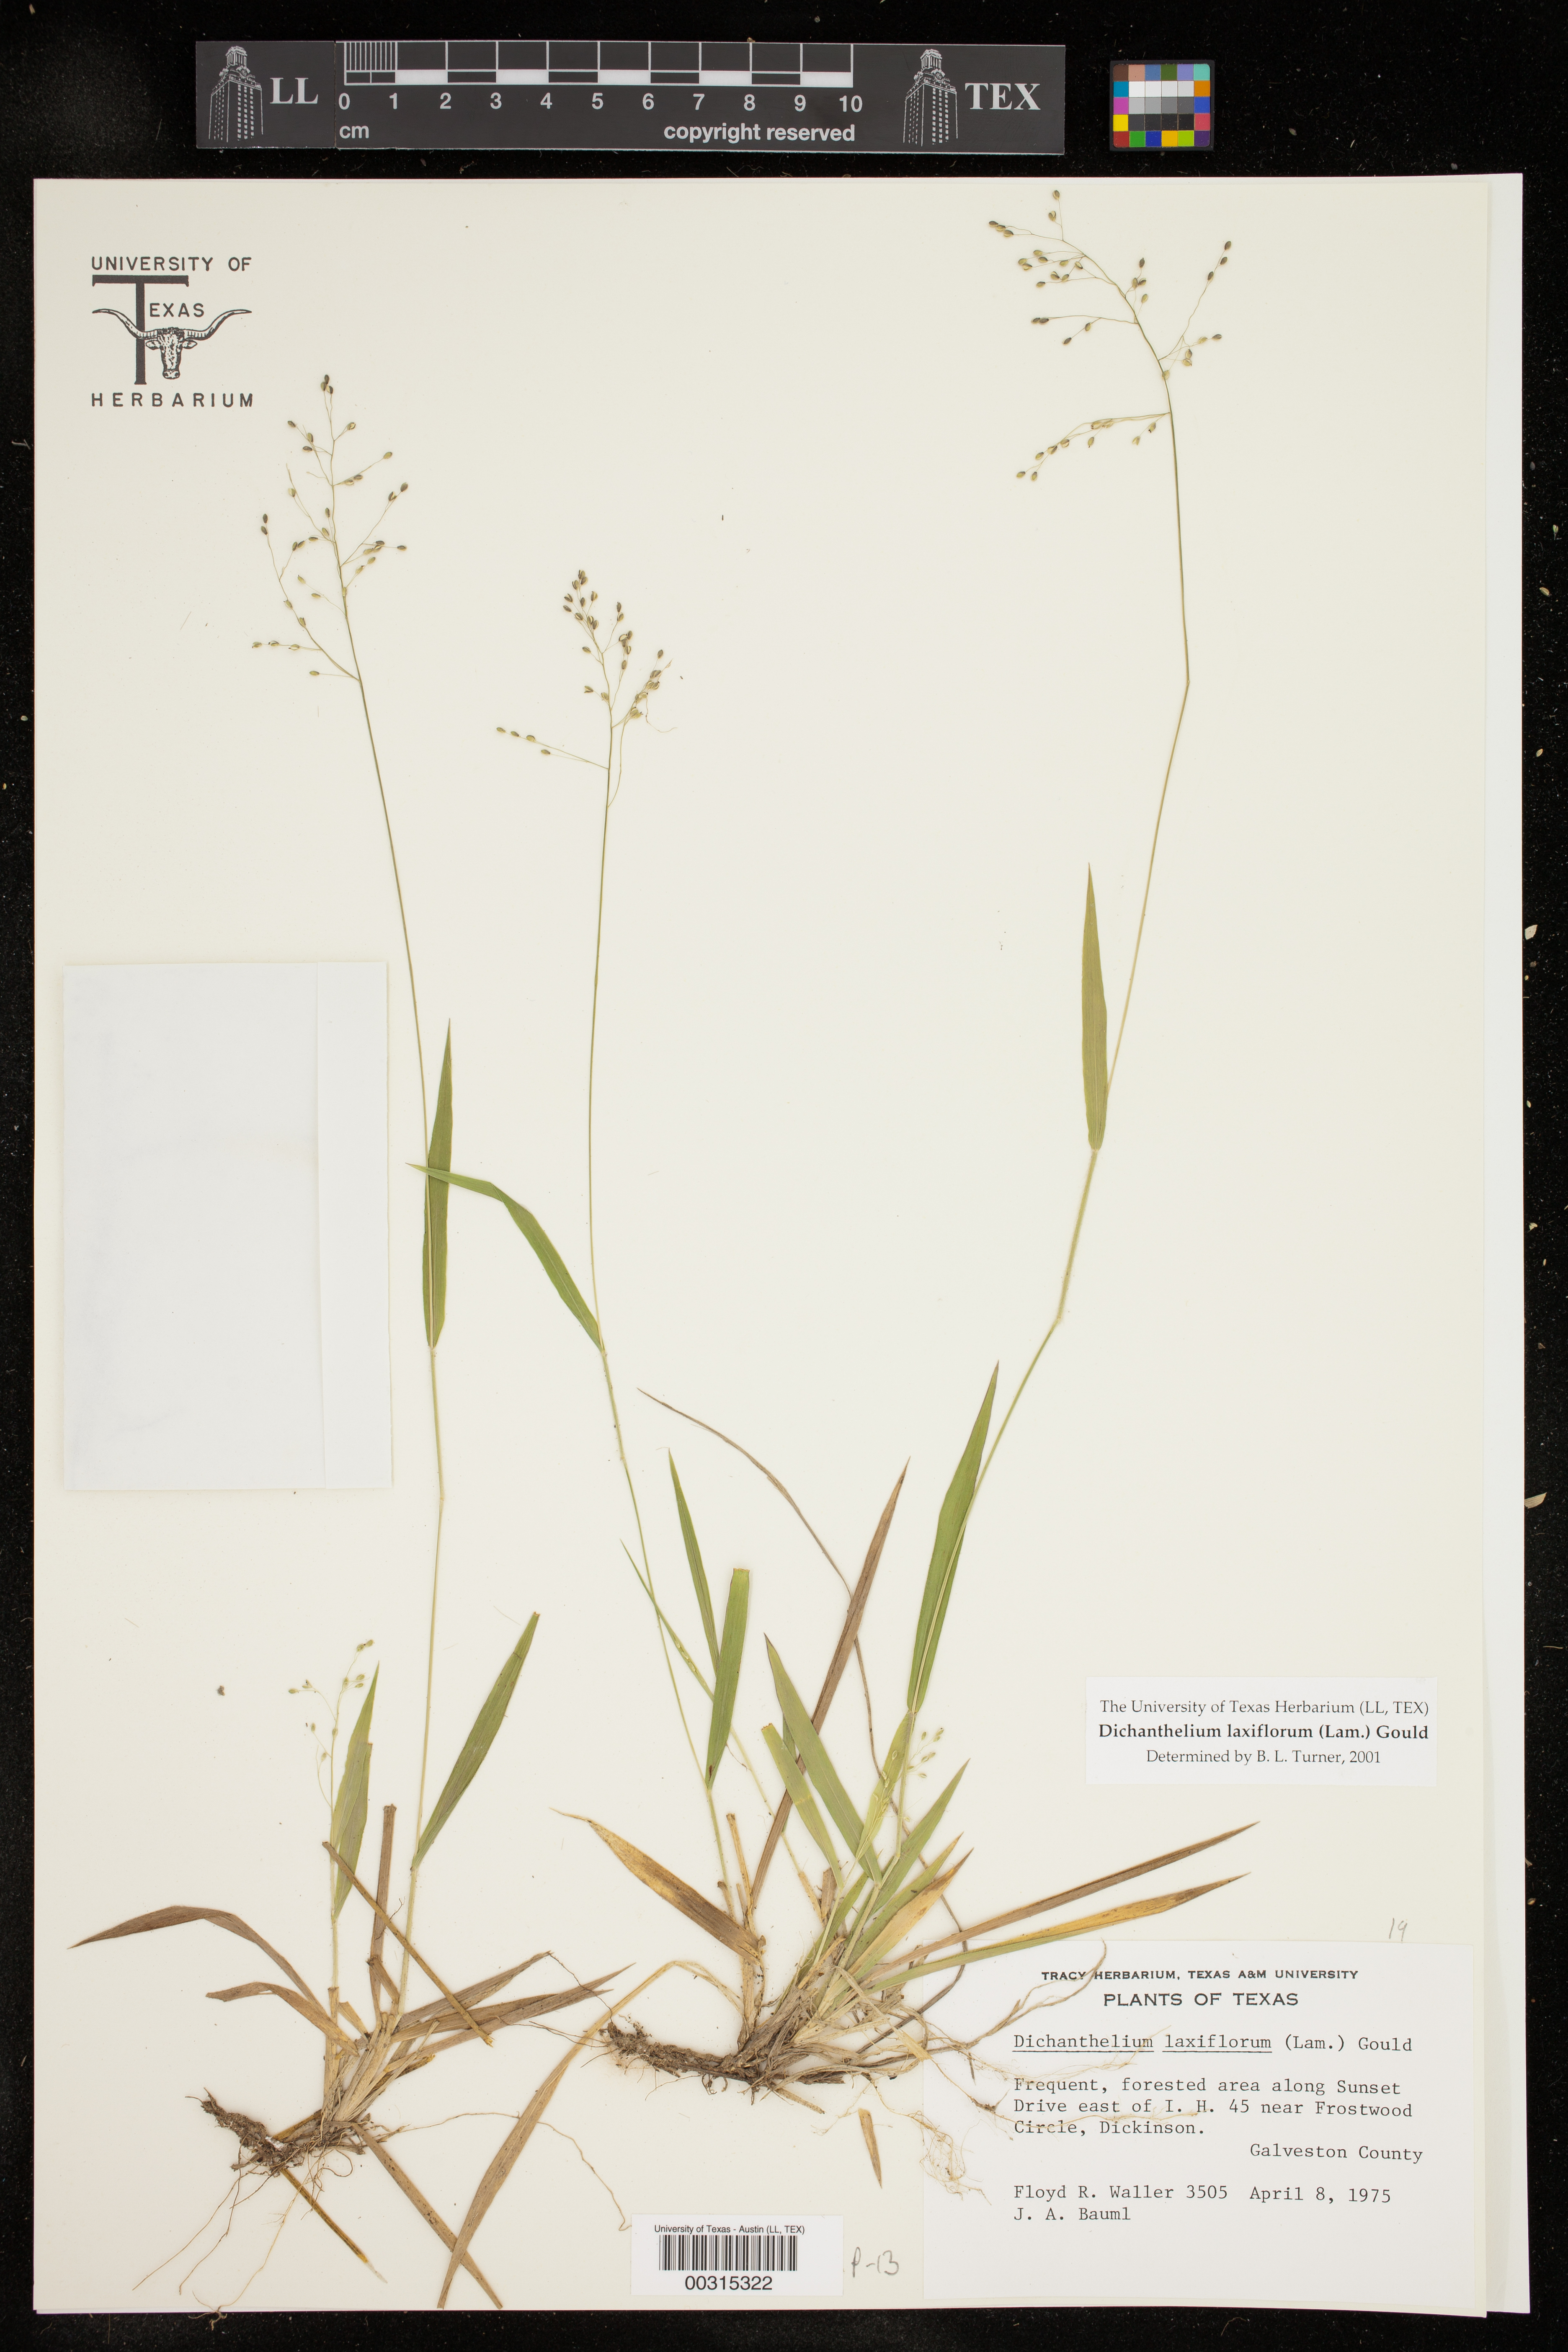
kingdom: Plantae
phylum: Tracheophyta
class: Liliopsida
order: Poales
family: Poaceae
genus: Dichanthelium
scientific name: Dichanthelium laxiflorum
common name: Soft-tuft panic grass
